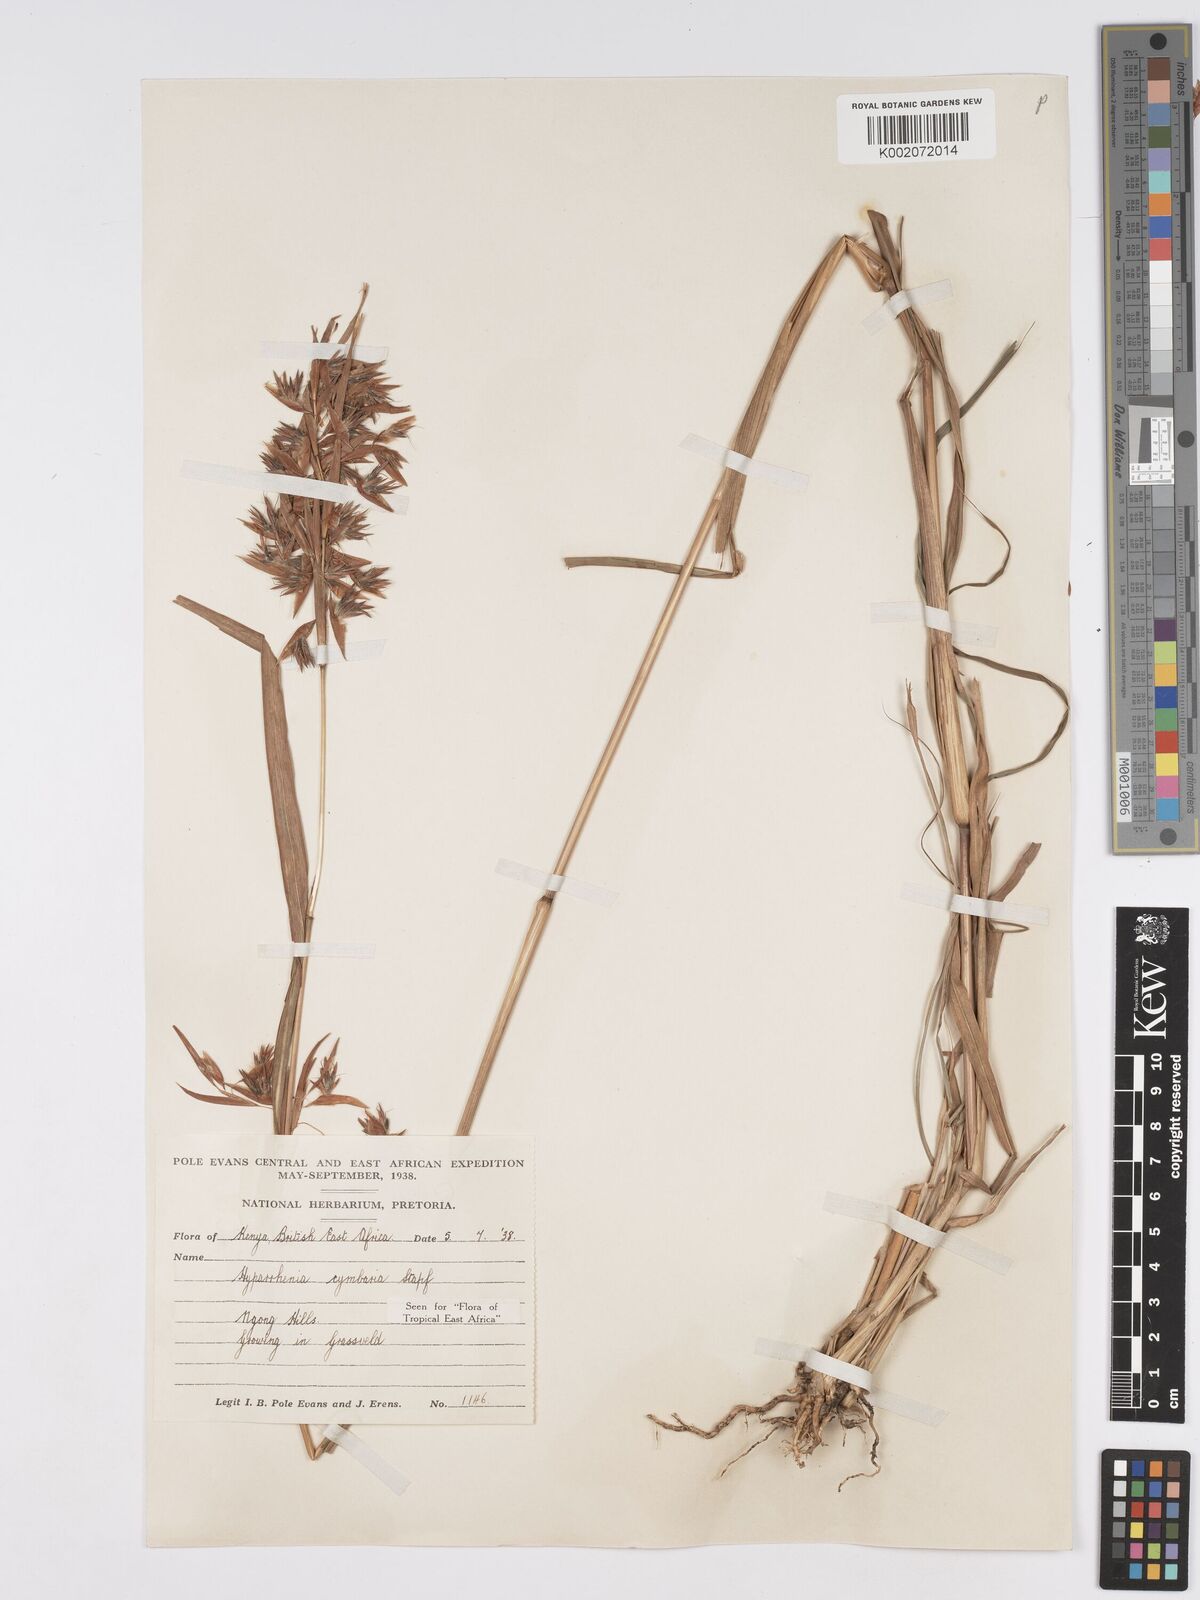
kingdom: Plantae
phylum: Tracheophyta
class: Liliopsida
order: Poales
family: Poaceae
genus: Hyparrhenia
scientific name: Hyparrhenia cymbaria
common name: Boat thatching grass
